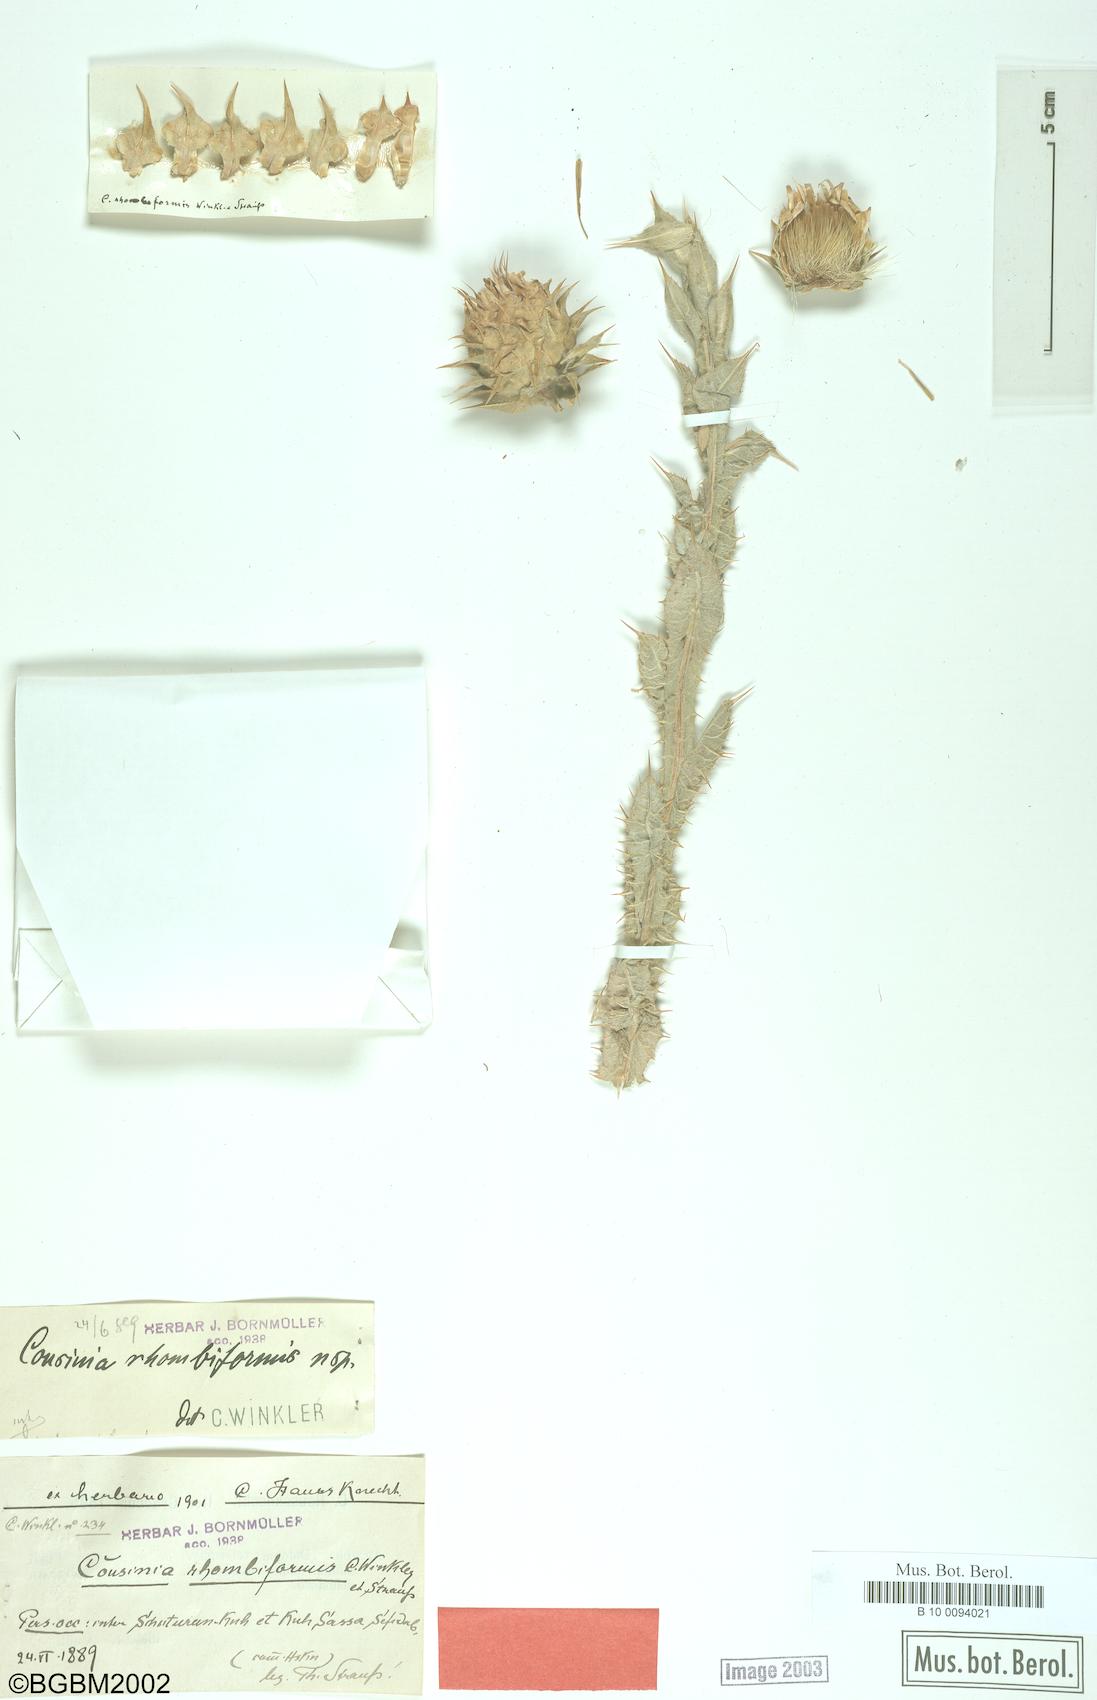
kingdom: Plantae
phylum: Tracheophyta
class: Magnoliopsida
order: Asterales
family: Asteraceae
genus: Cousinia
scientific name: Cousinia rhombiformis
